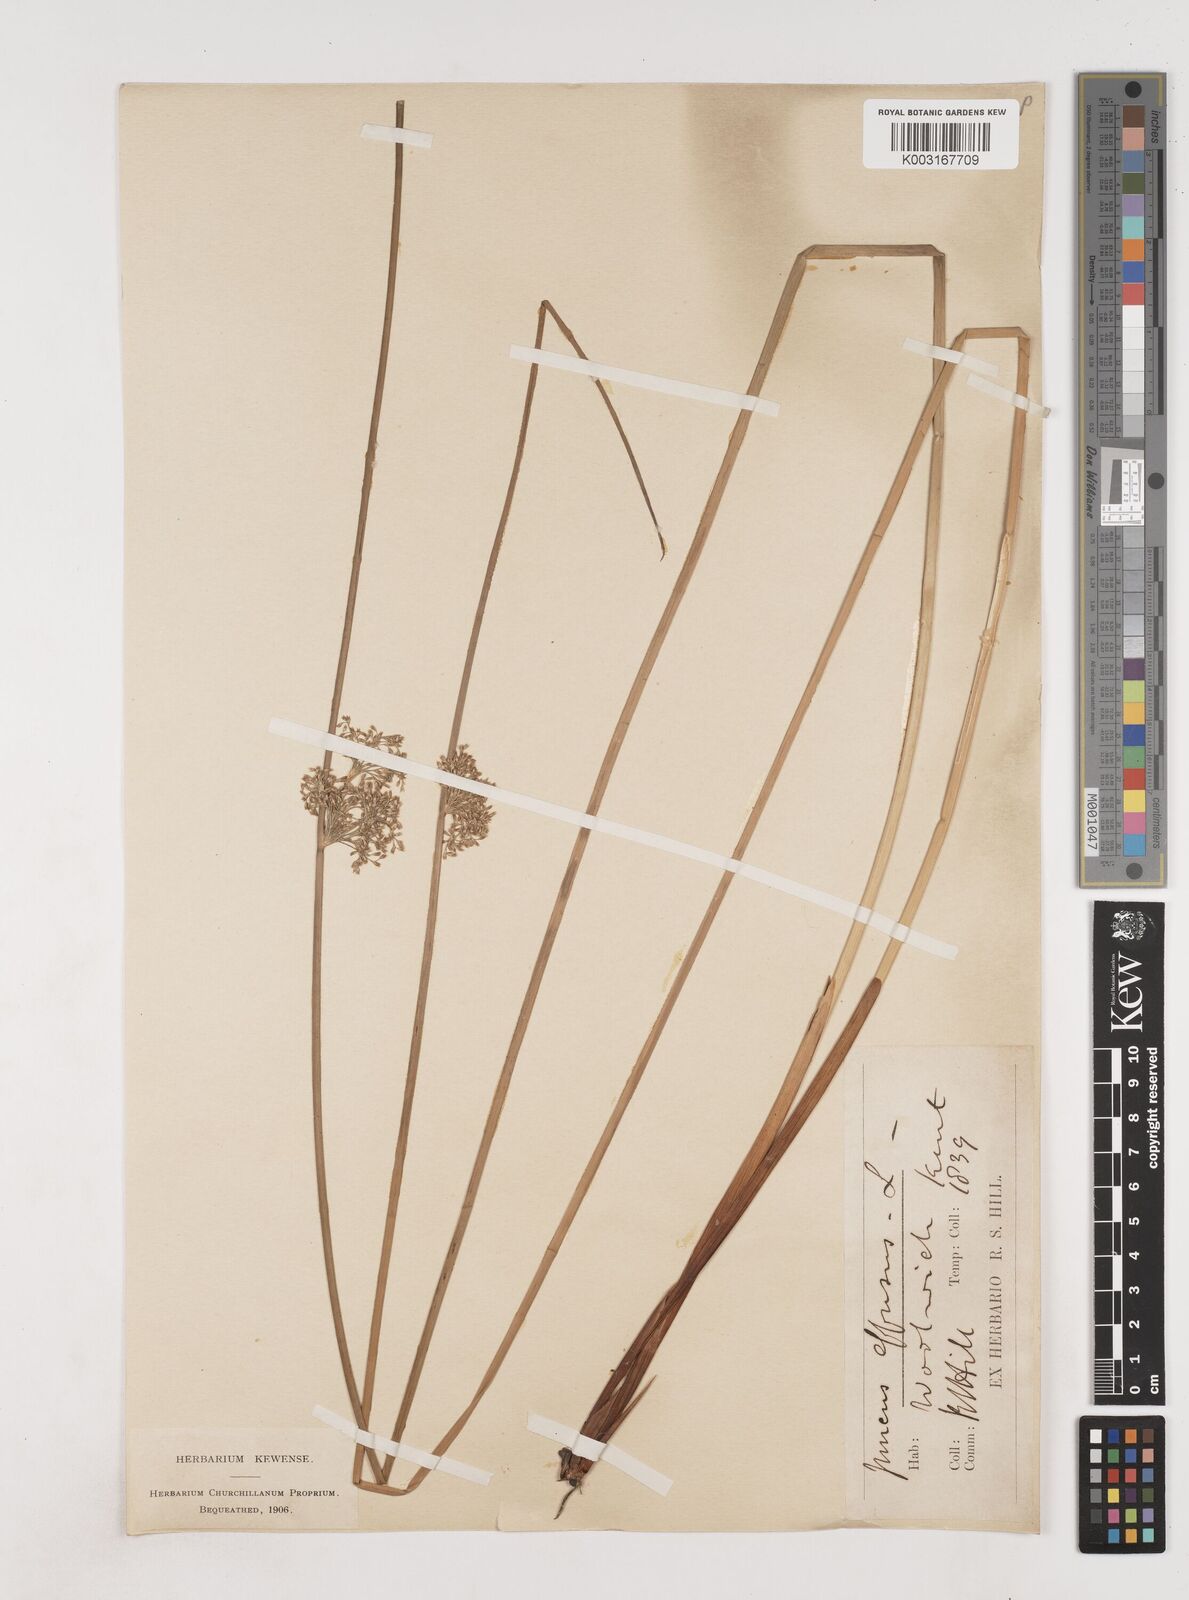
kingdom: Plantae
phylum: Tracheophyta
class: Liliopsida
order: Poales
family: Juncaceae
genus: Juncus
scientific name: Juncus effusus
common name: Soft rush
